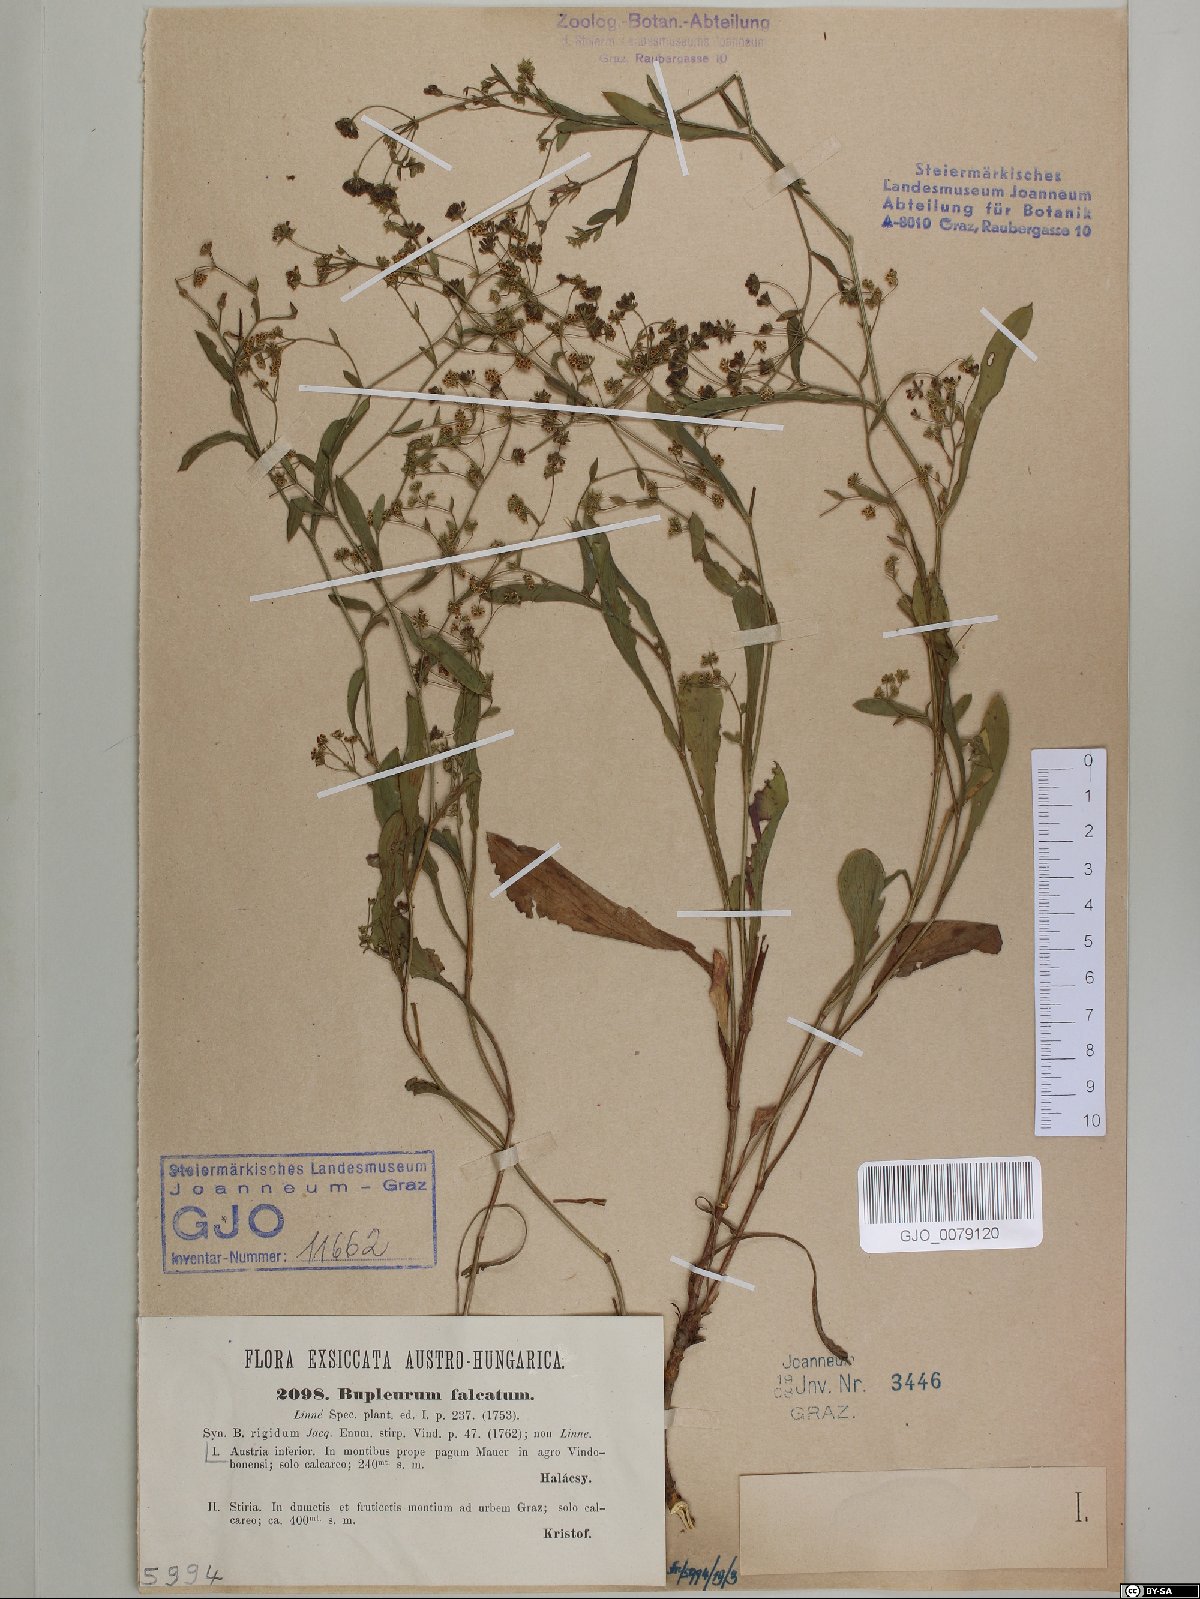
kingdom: Plantae
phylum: Tracheophyta
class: Magnoliopsida
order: Apiales
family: Apiaceae
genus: Bupleurum
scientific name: Bupleurum falcatum
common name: Sickle-leaved hare's-ear
